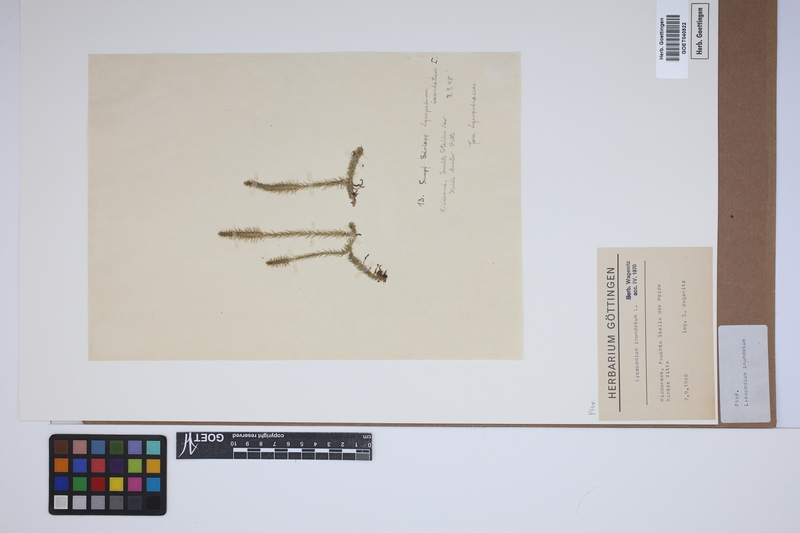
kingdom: Plantae
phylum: Tracheophyta
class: Lycopodiopsida
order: Lycopodiales
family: Lycopodiaceae
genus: Lycopodiella
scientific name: Lycopodiella inundata
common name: Marsh clubmoss
